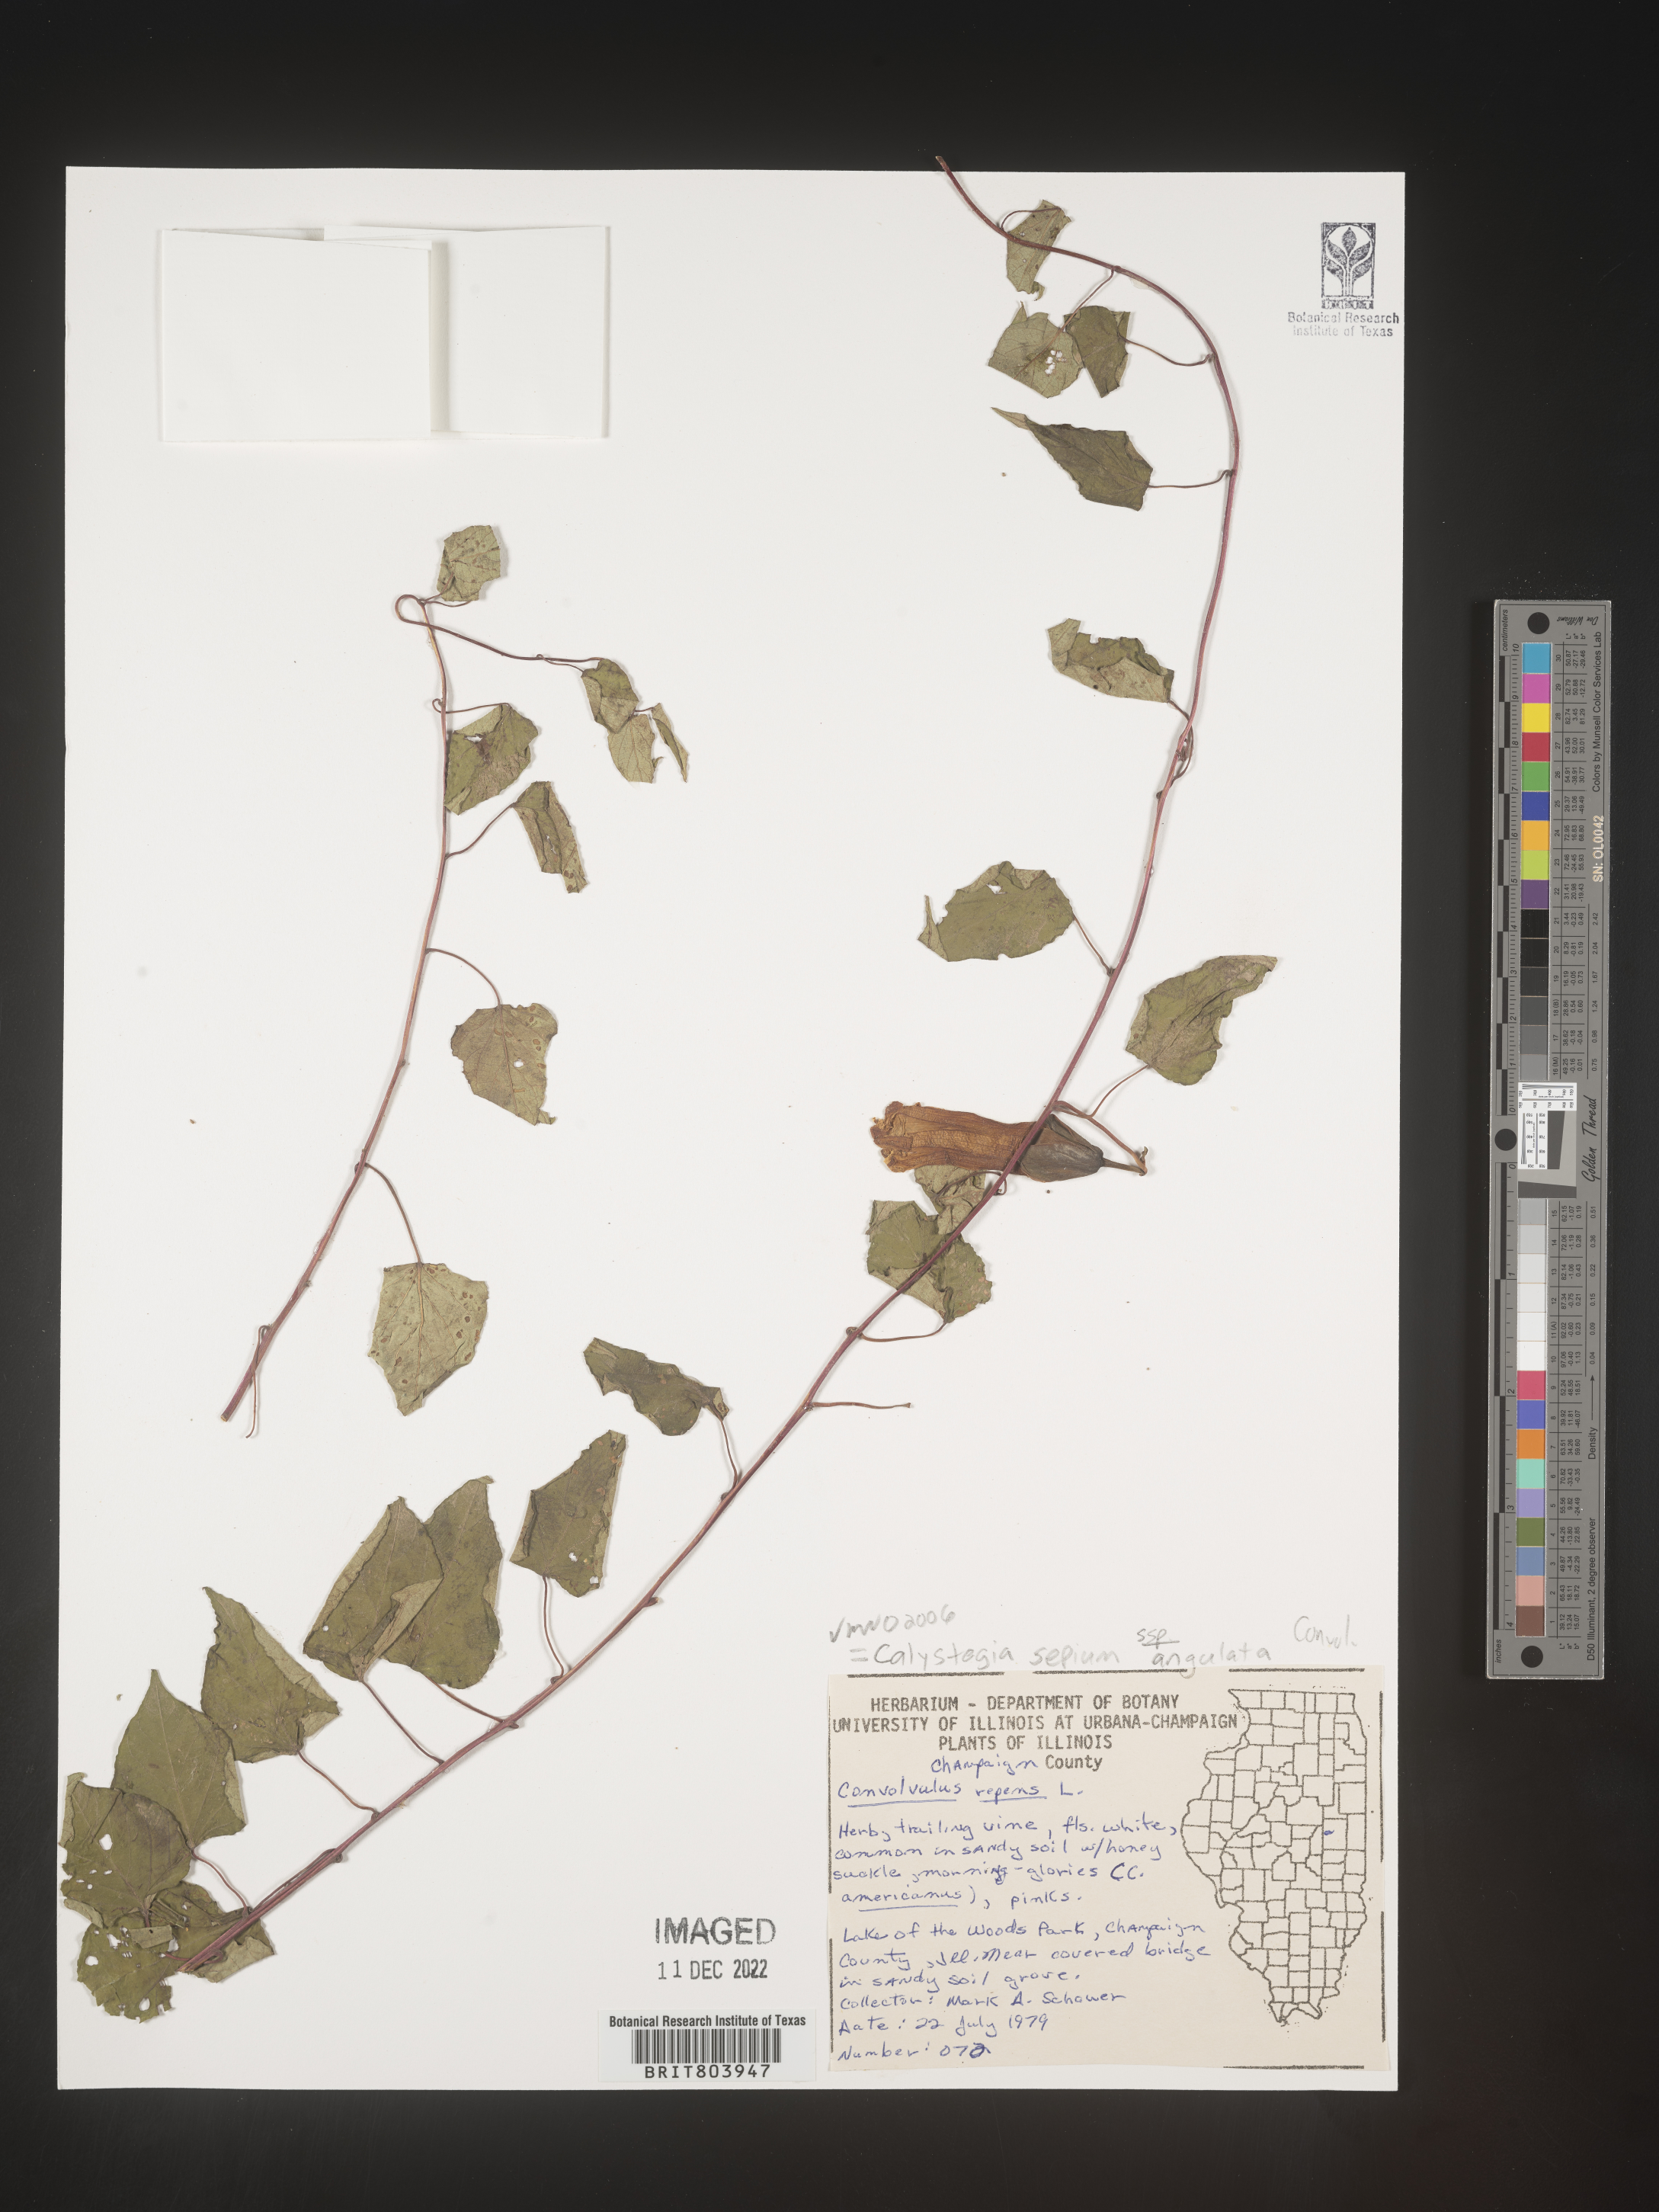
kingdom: Plantae
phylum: Tracheophyta
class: Magnoliopsida
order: Solanales
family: Convolvulaceae
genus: Calystegia
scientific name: Calystegia sepium
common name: Hedge bindweed
